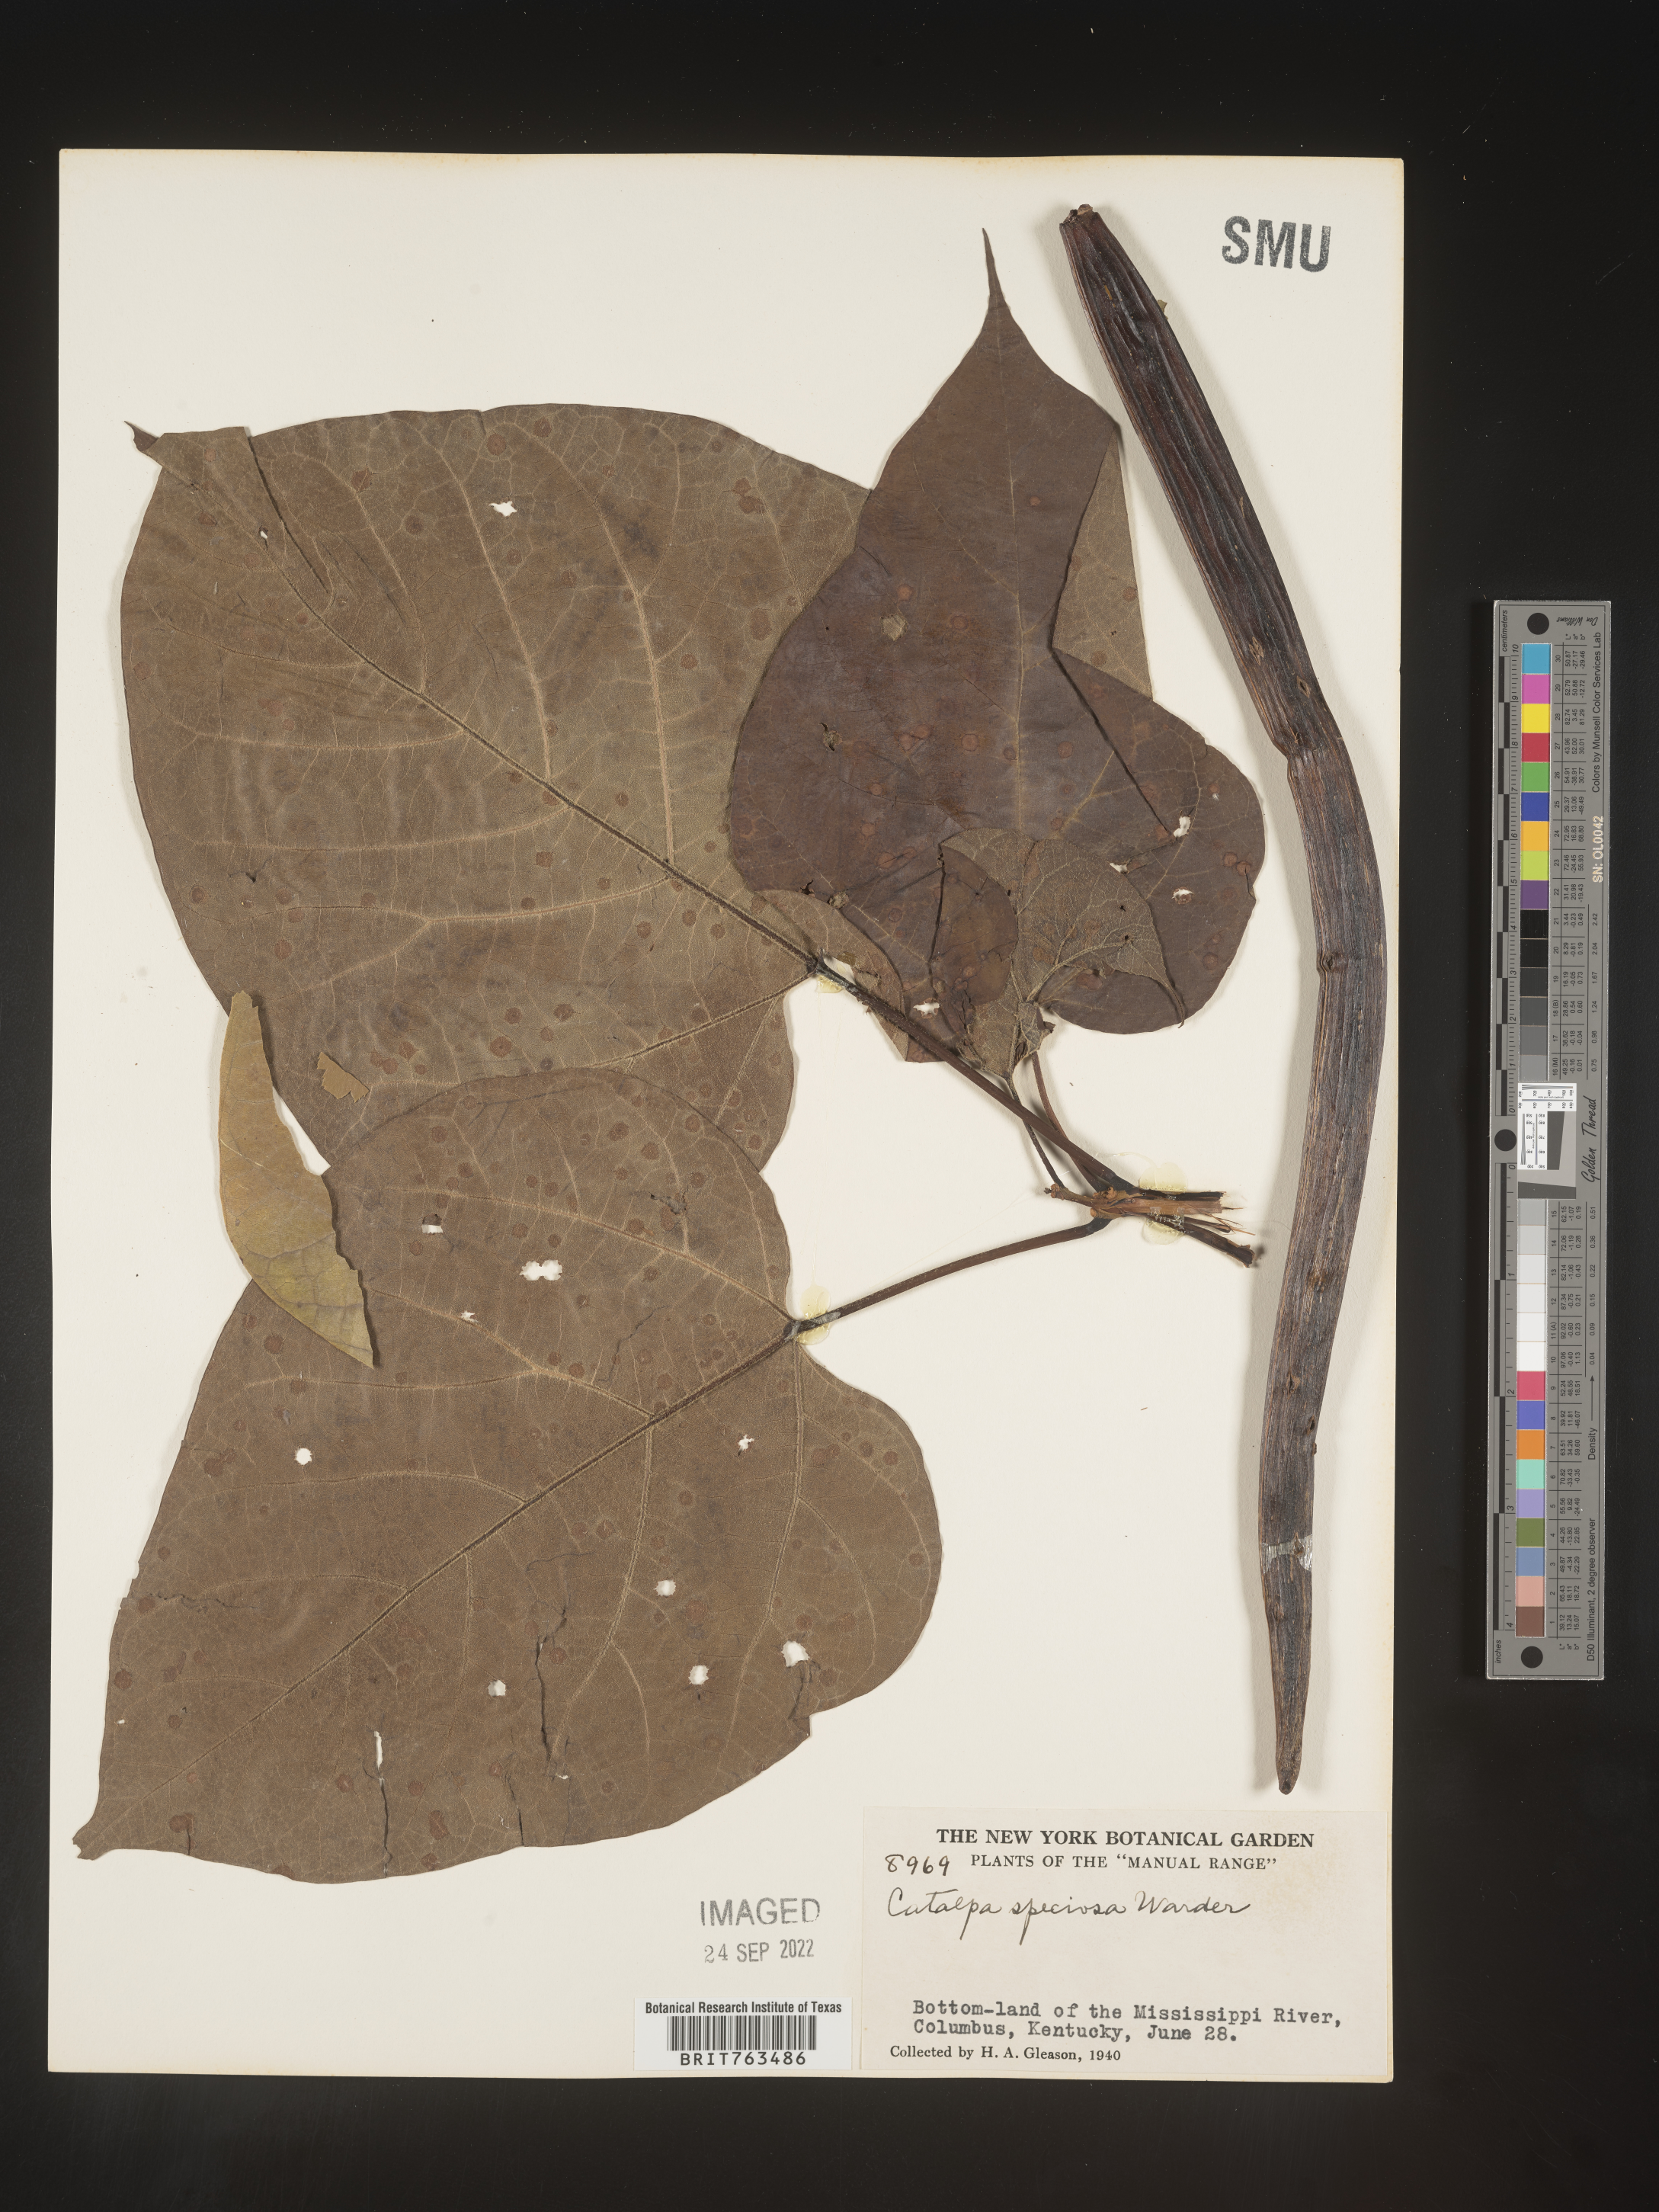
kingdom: Plantae
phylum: Tracheophyta
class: Magnoliopsida
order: Lamiales
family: Bignoniaceae
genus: Catalpa
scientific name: Catalpa speciosa
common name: Northern catalpa
